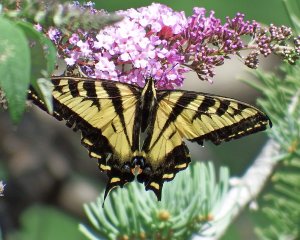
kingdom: Animalia
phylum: Arthropoda
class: Insecta
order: Lepidoptera
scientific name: Lepidoptera
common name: Butterflies
